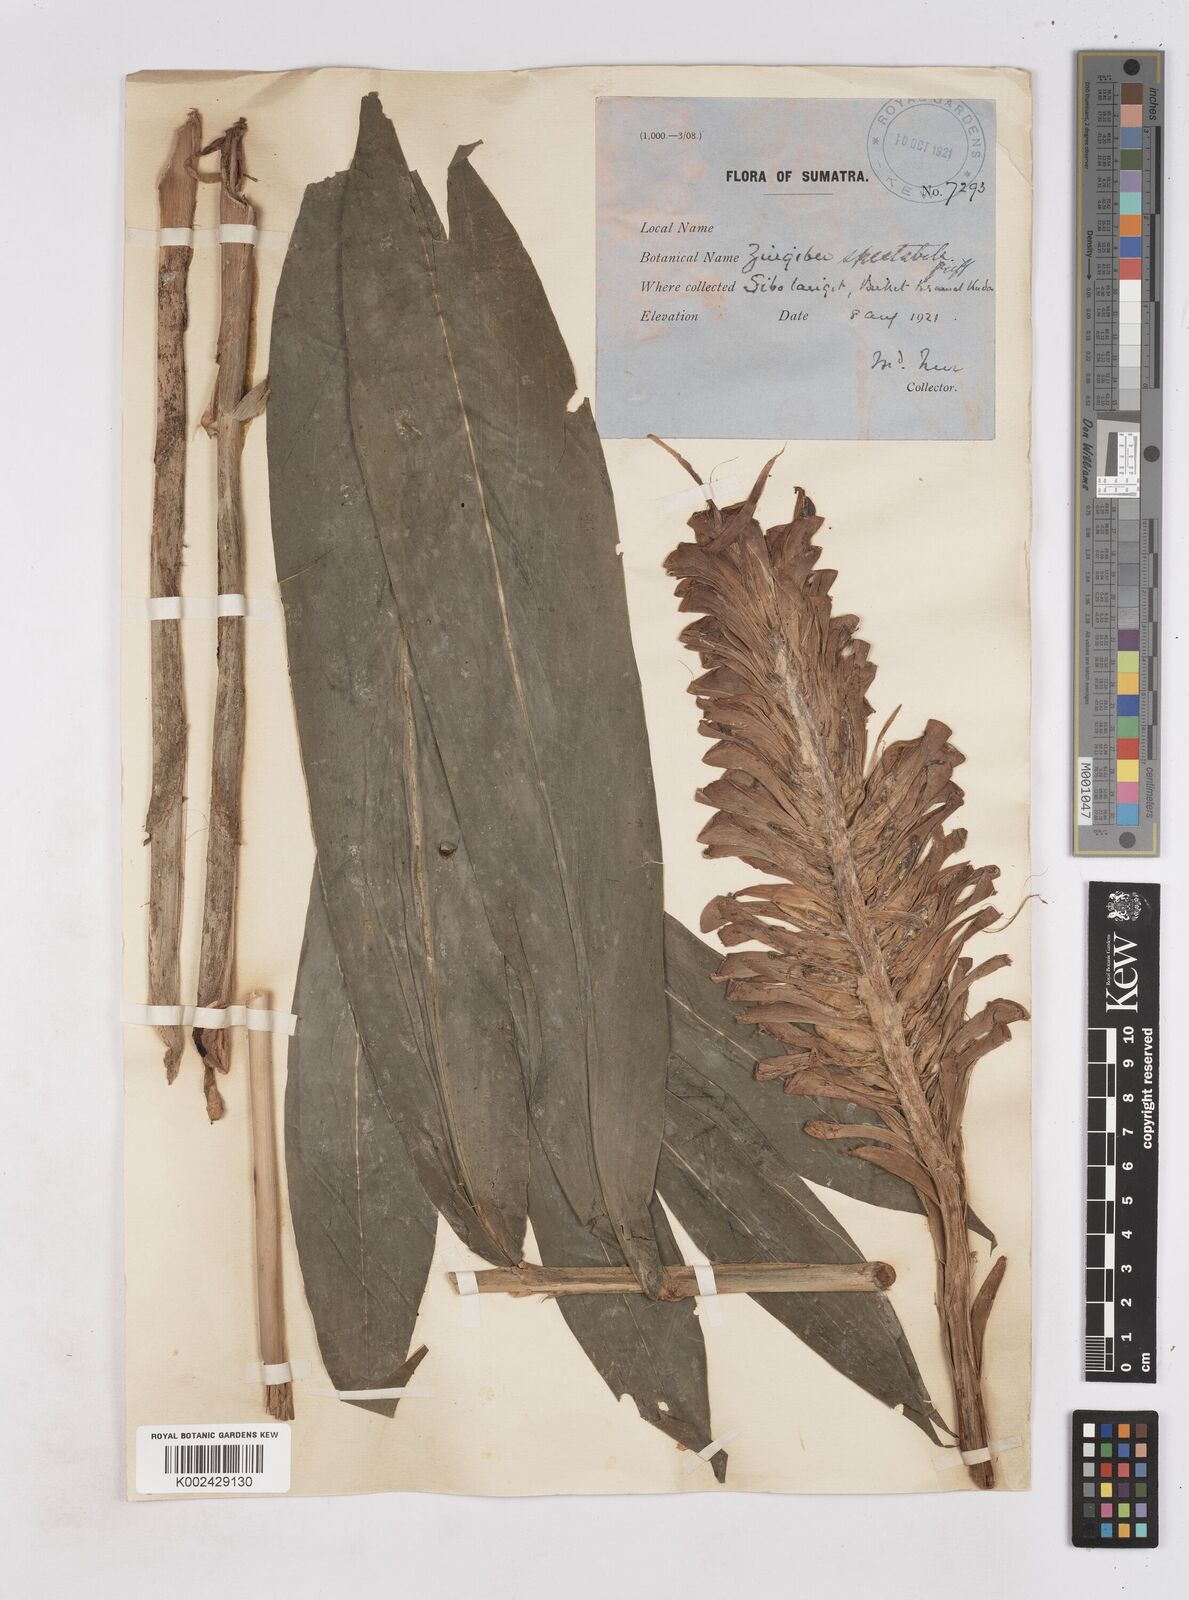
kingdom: Plantae
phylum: Tracheophyta
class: Liliopsida
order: Zingiberales
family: Zingiberaceae
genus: Zingiber
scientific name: Zingiber spectabile
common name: Beehive ginger
